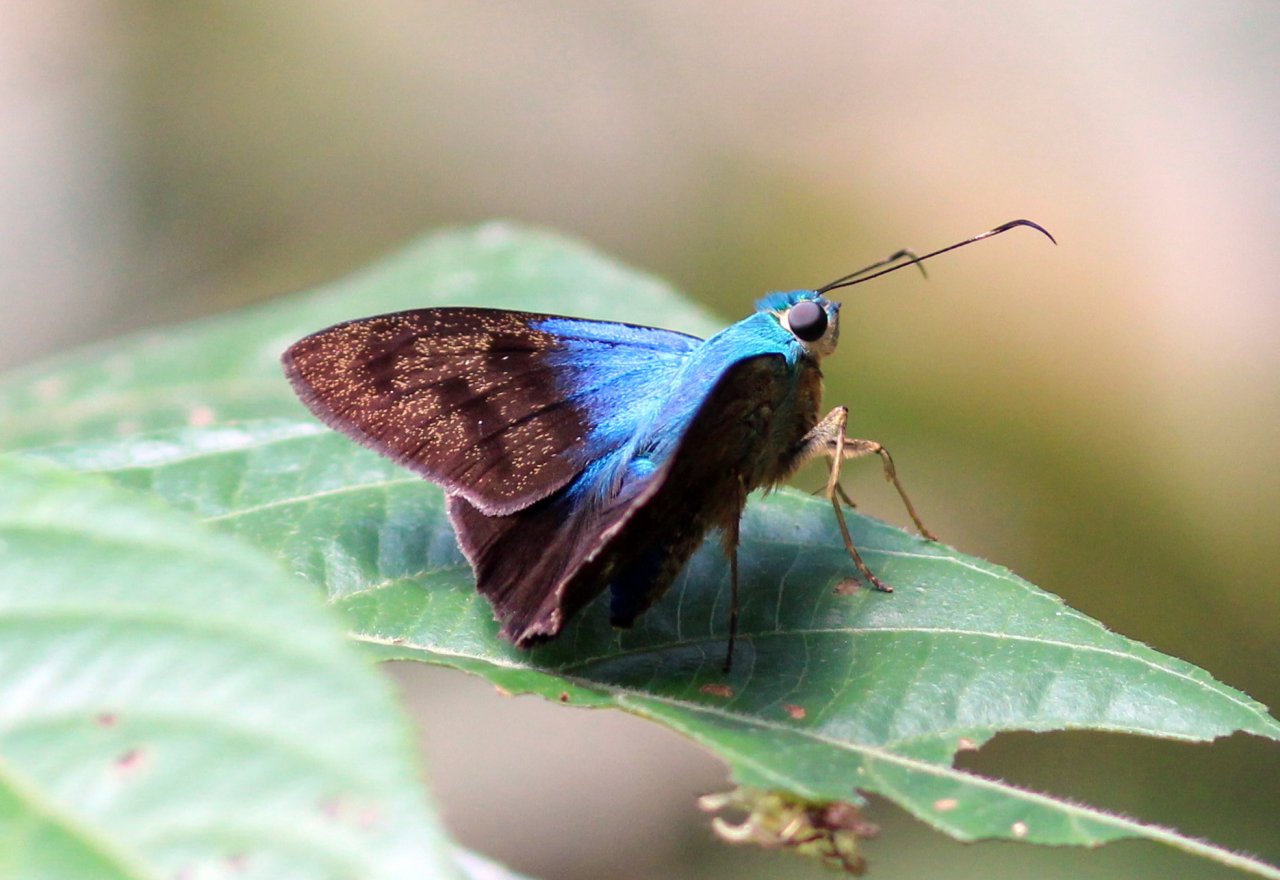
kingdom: Animalia
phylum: Arthropoda
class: Insecta
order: Lepidoptera
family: Hesperiidae
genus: Astraptes
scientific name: Astraptes creteus
